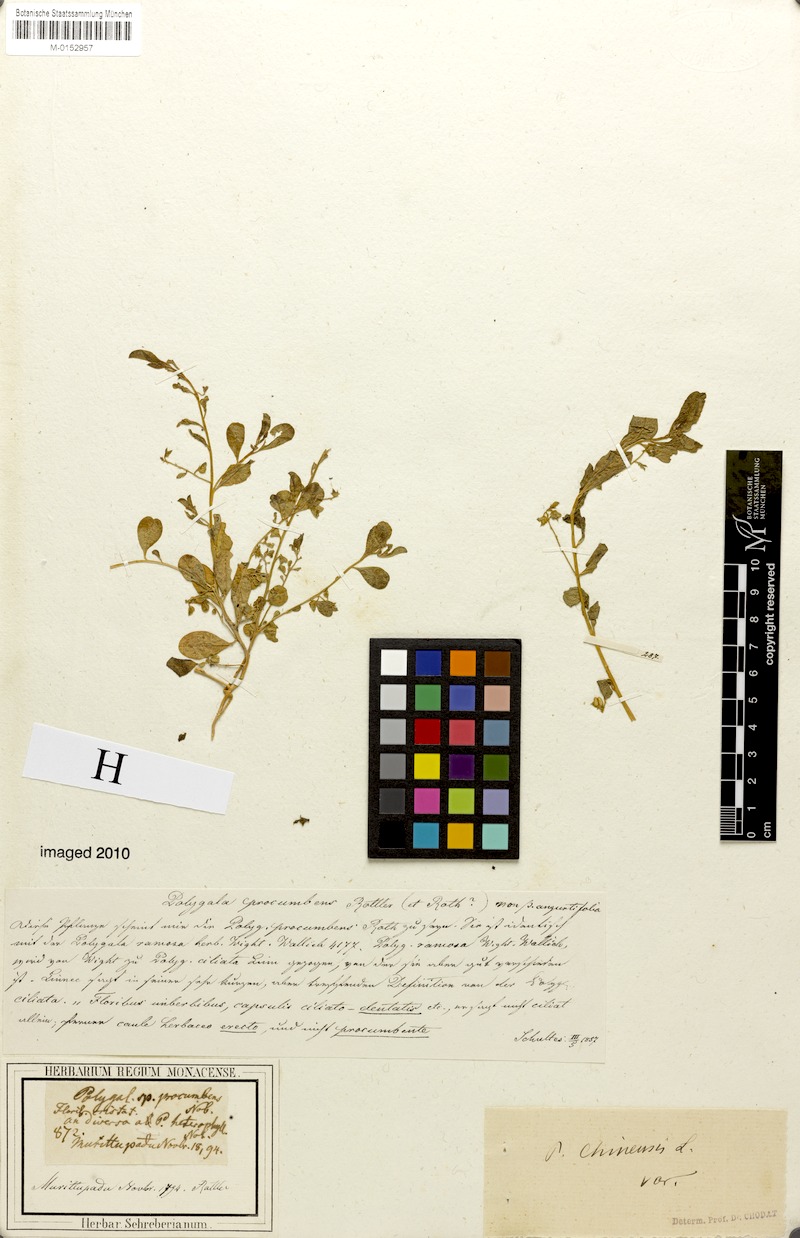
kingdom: Plantae
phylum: Tracheophyta
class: Magnoliopsida
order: Fabales
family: Polygalaceae
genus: Polygala
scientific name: Polygala glomerata
